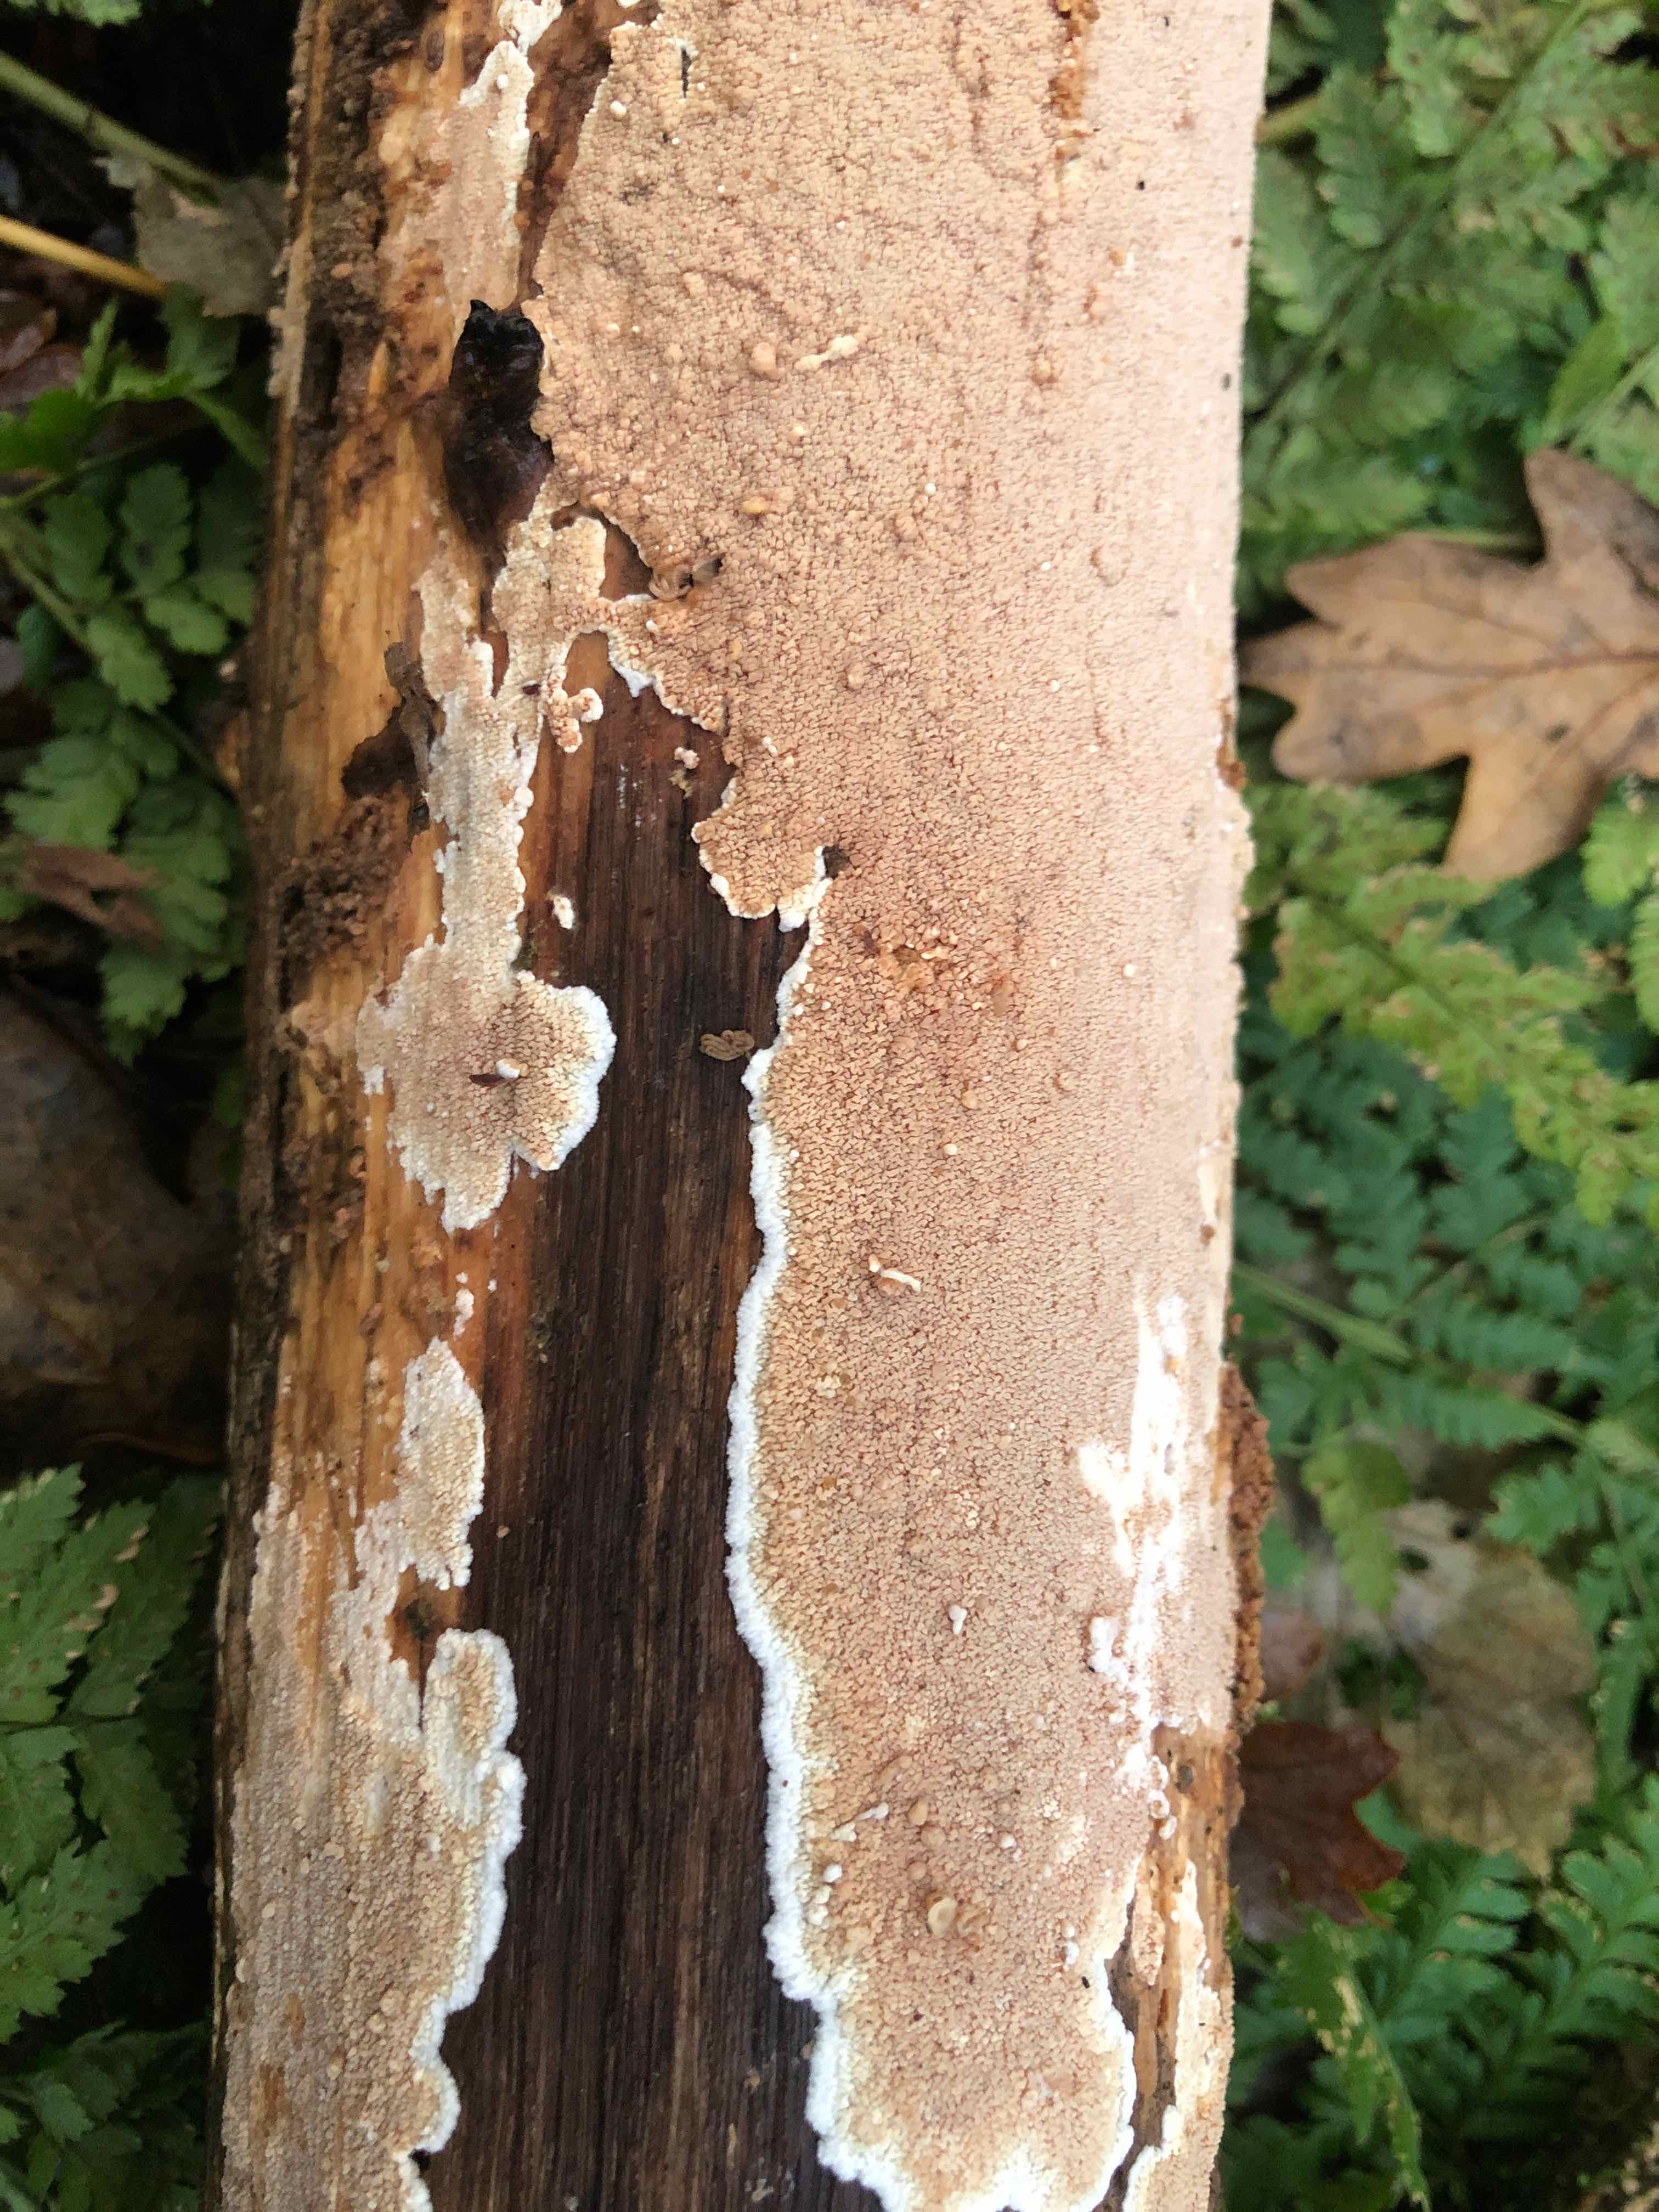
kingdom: Fungi
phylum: Basidiomycota
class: Agaricomycetes
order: Polyporales
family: Meruliaceae
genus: Phlebia
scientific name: Phlebia rufa
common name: ege-åresvamp
